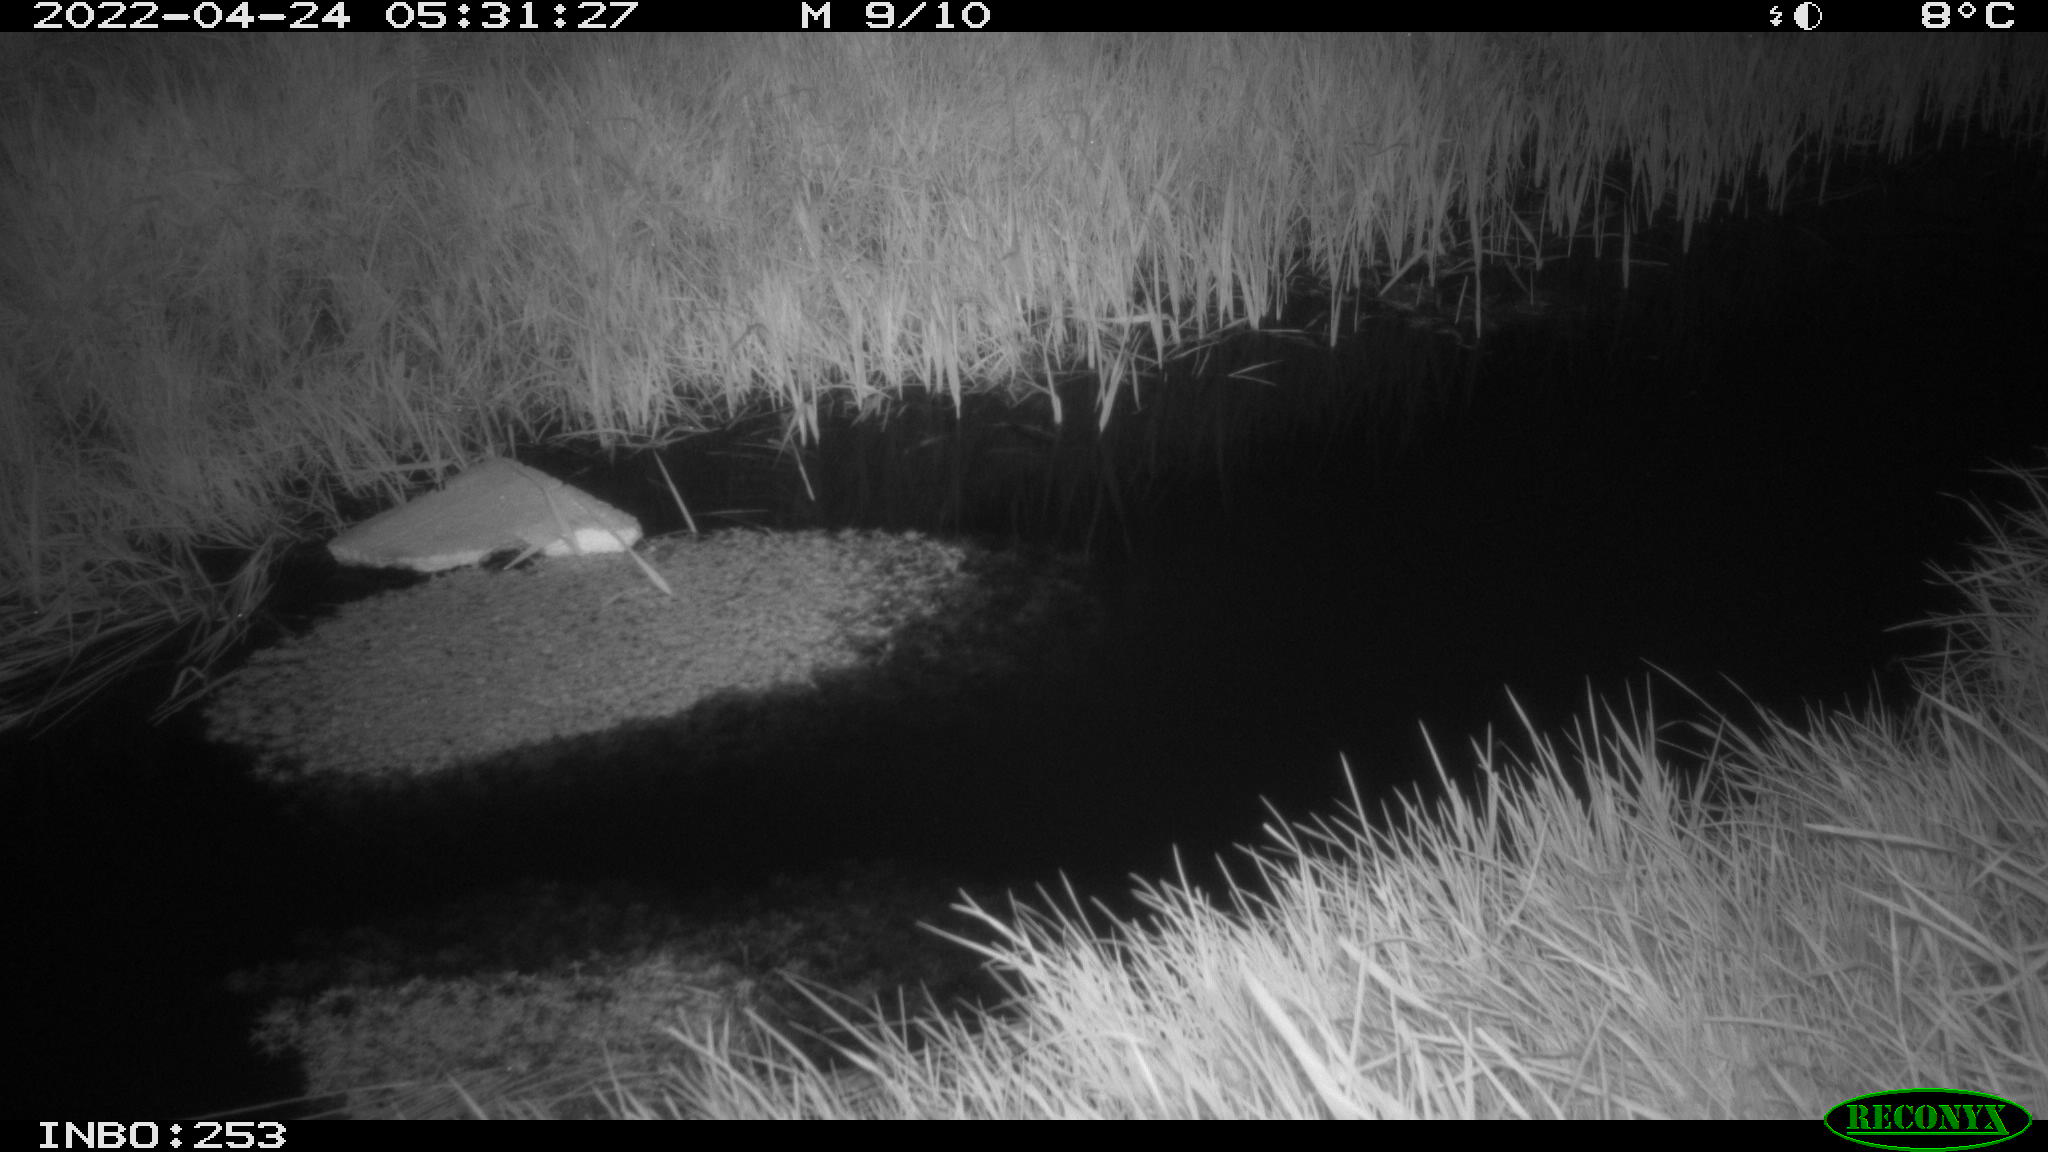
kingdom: Animalia
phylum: Chordata
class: Aves
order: Anseriformes
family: Anatidae
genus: Anas
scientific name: Anas platyrhynchos
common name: Mallard
